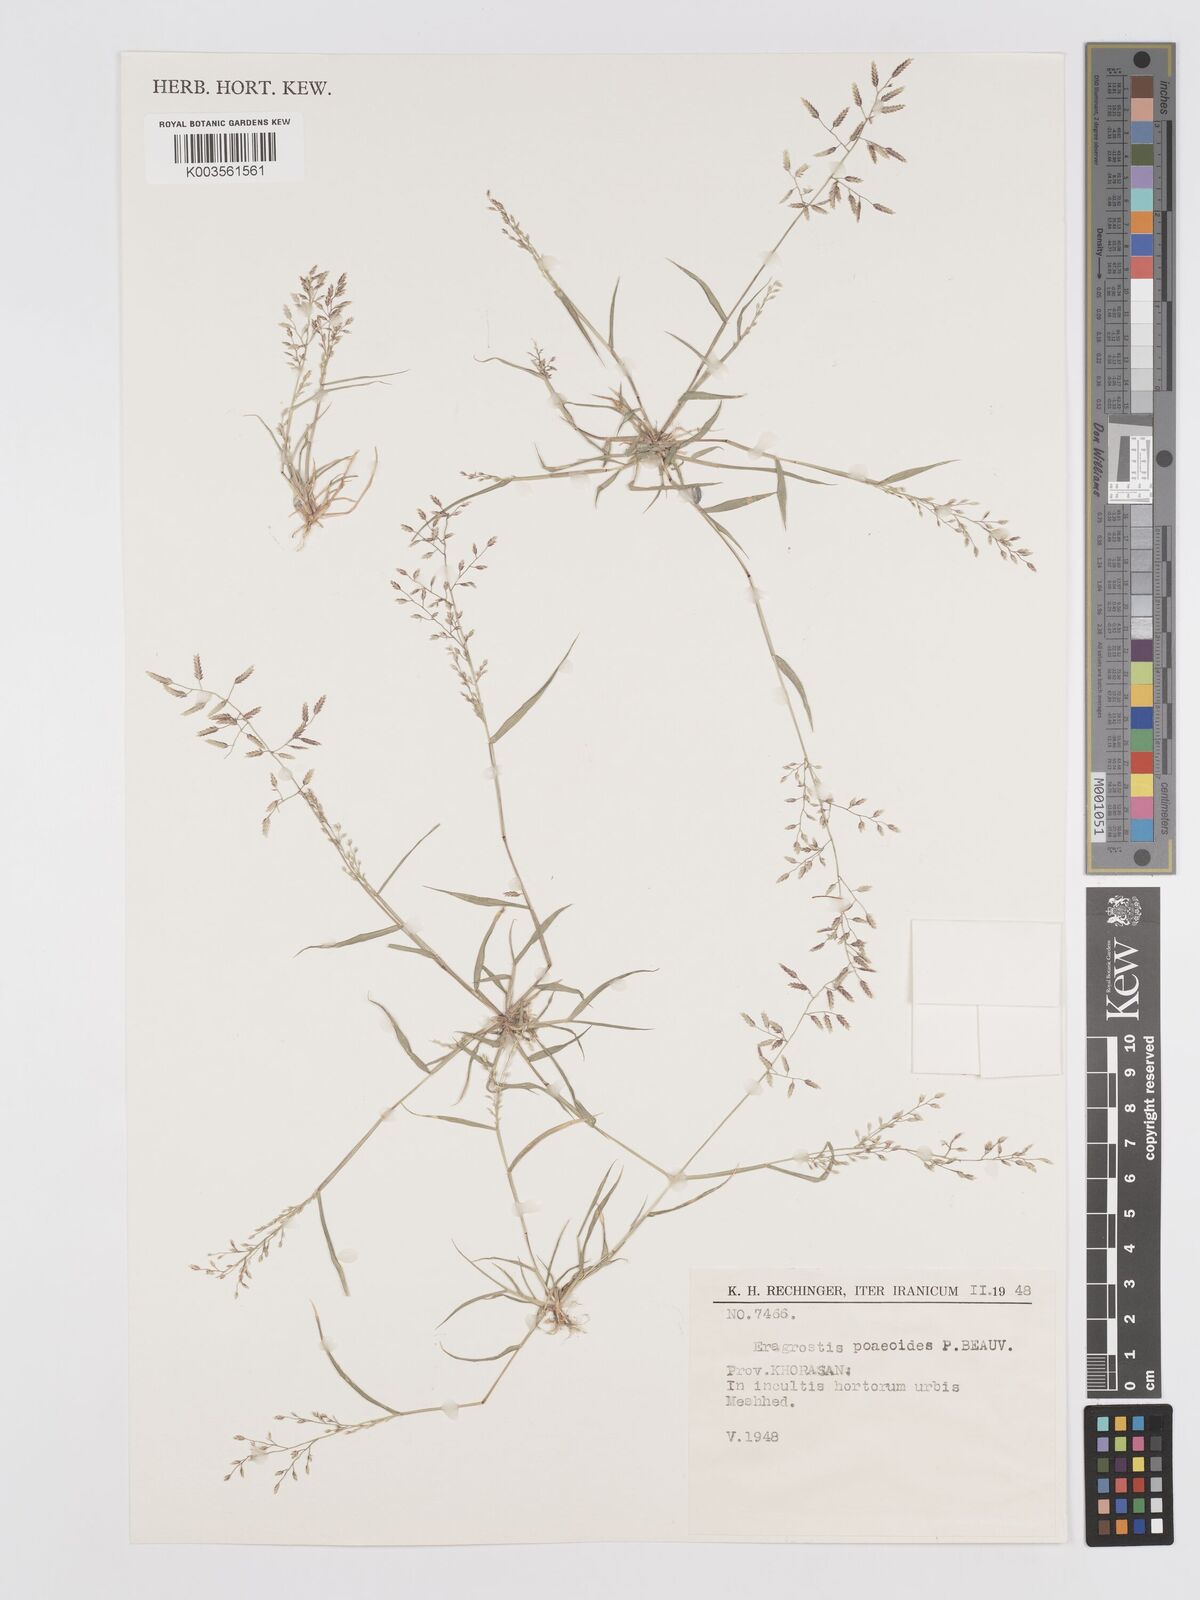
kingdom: Plantae
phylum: Tracheophyta
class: Liliopsida
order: Poales
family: Poaceae
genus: Eragrostis
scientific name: Eragrostis minor
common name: Small love-grass
